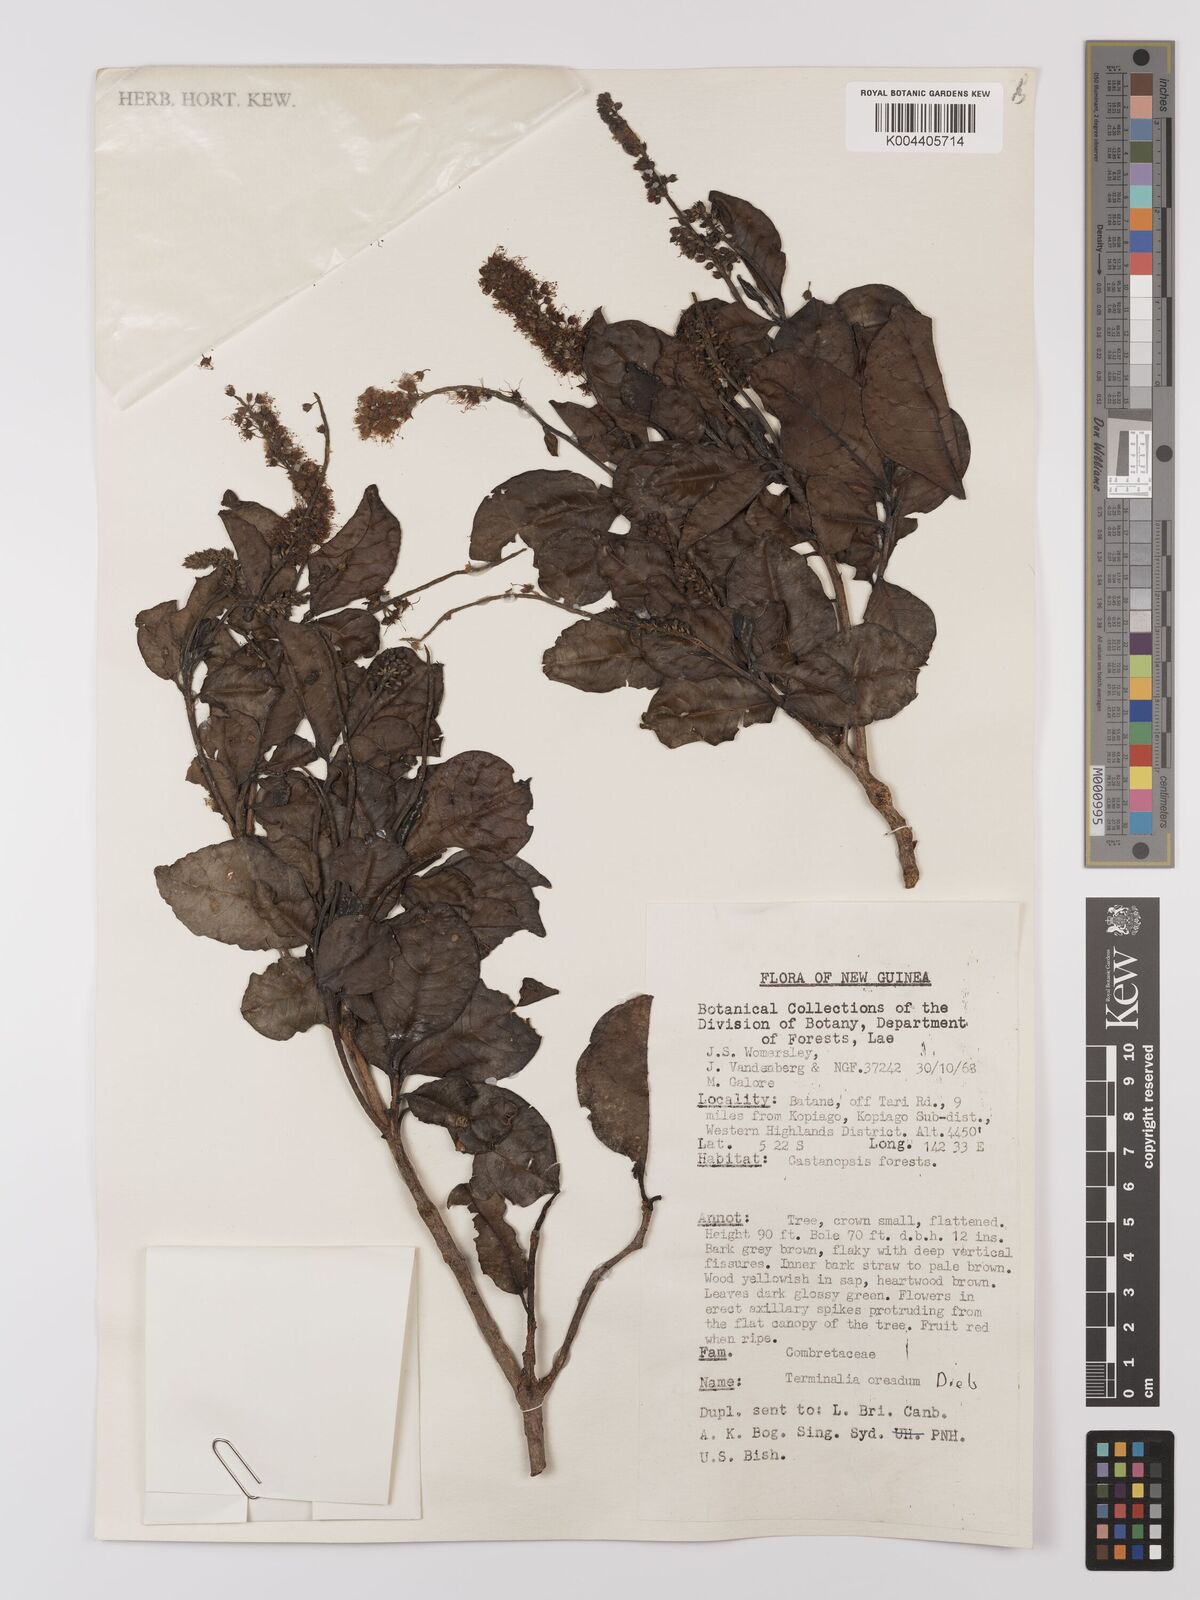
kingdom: Plantae
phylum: Tracheophyta
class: Magnoliopsida
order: Myrtales
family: Combretaceae
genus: Terminalia
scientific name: Terminalia oreadum
